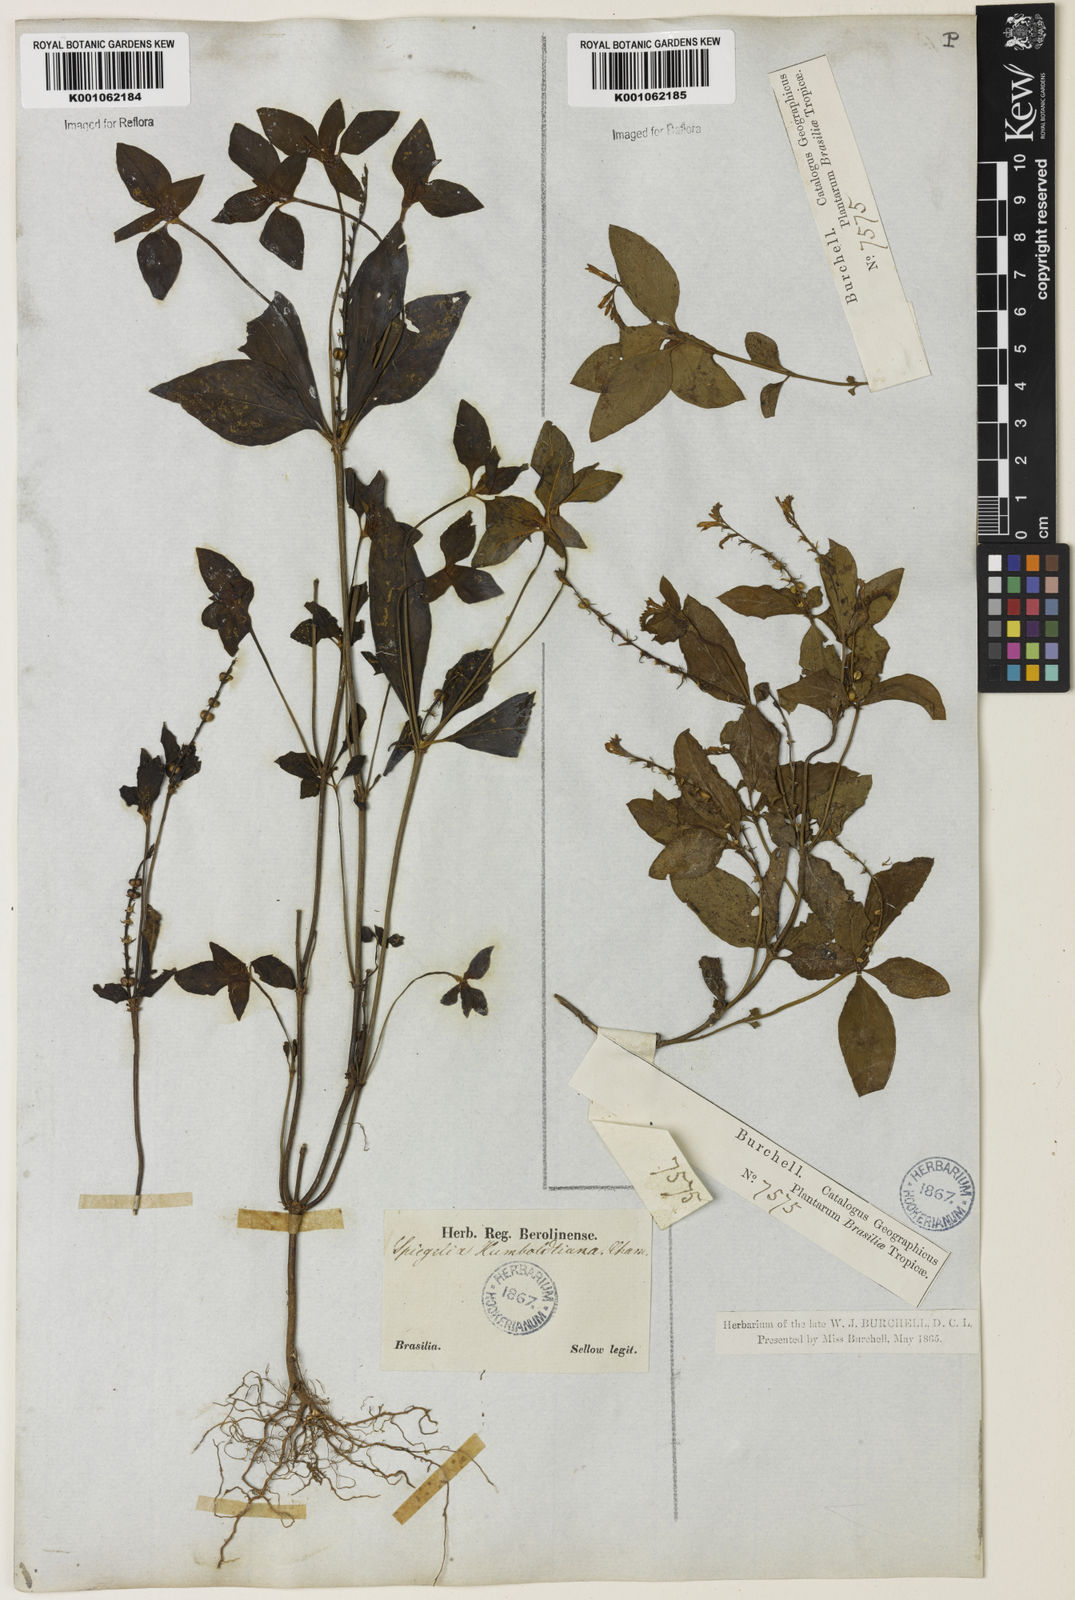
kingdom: Plantae
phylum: Tracheophyta
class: Magnoliopsida
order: Gentianales
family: Loganiaceae
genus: Spigelia
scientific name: Spigelia humboldtiana
